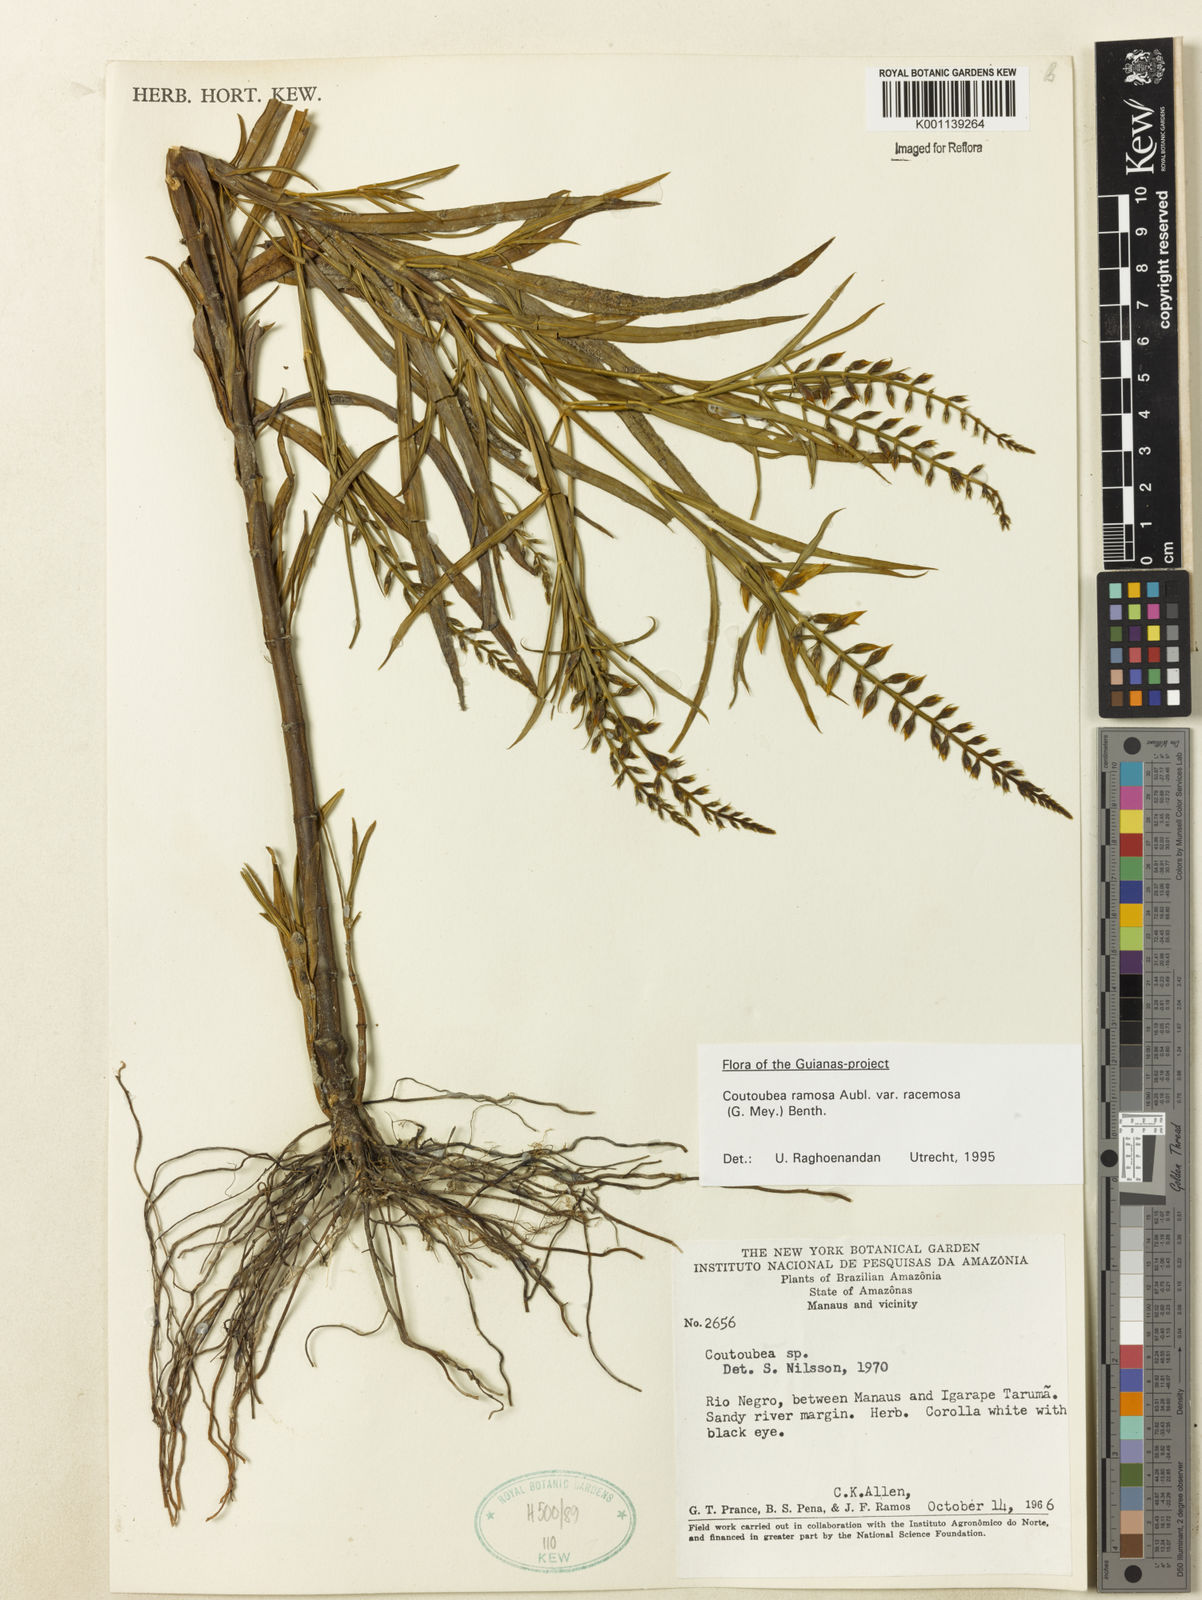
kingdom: Plantae
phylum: Tracheophyta
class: Magnoliopsida
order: Gentianales
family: Gentianaceae
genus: Coutoubea
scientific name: Coutoubea ramosa
